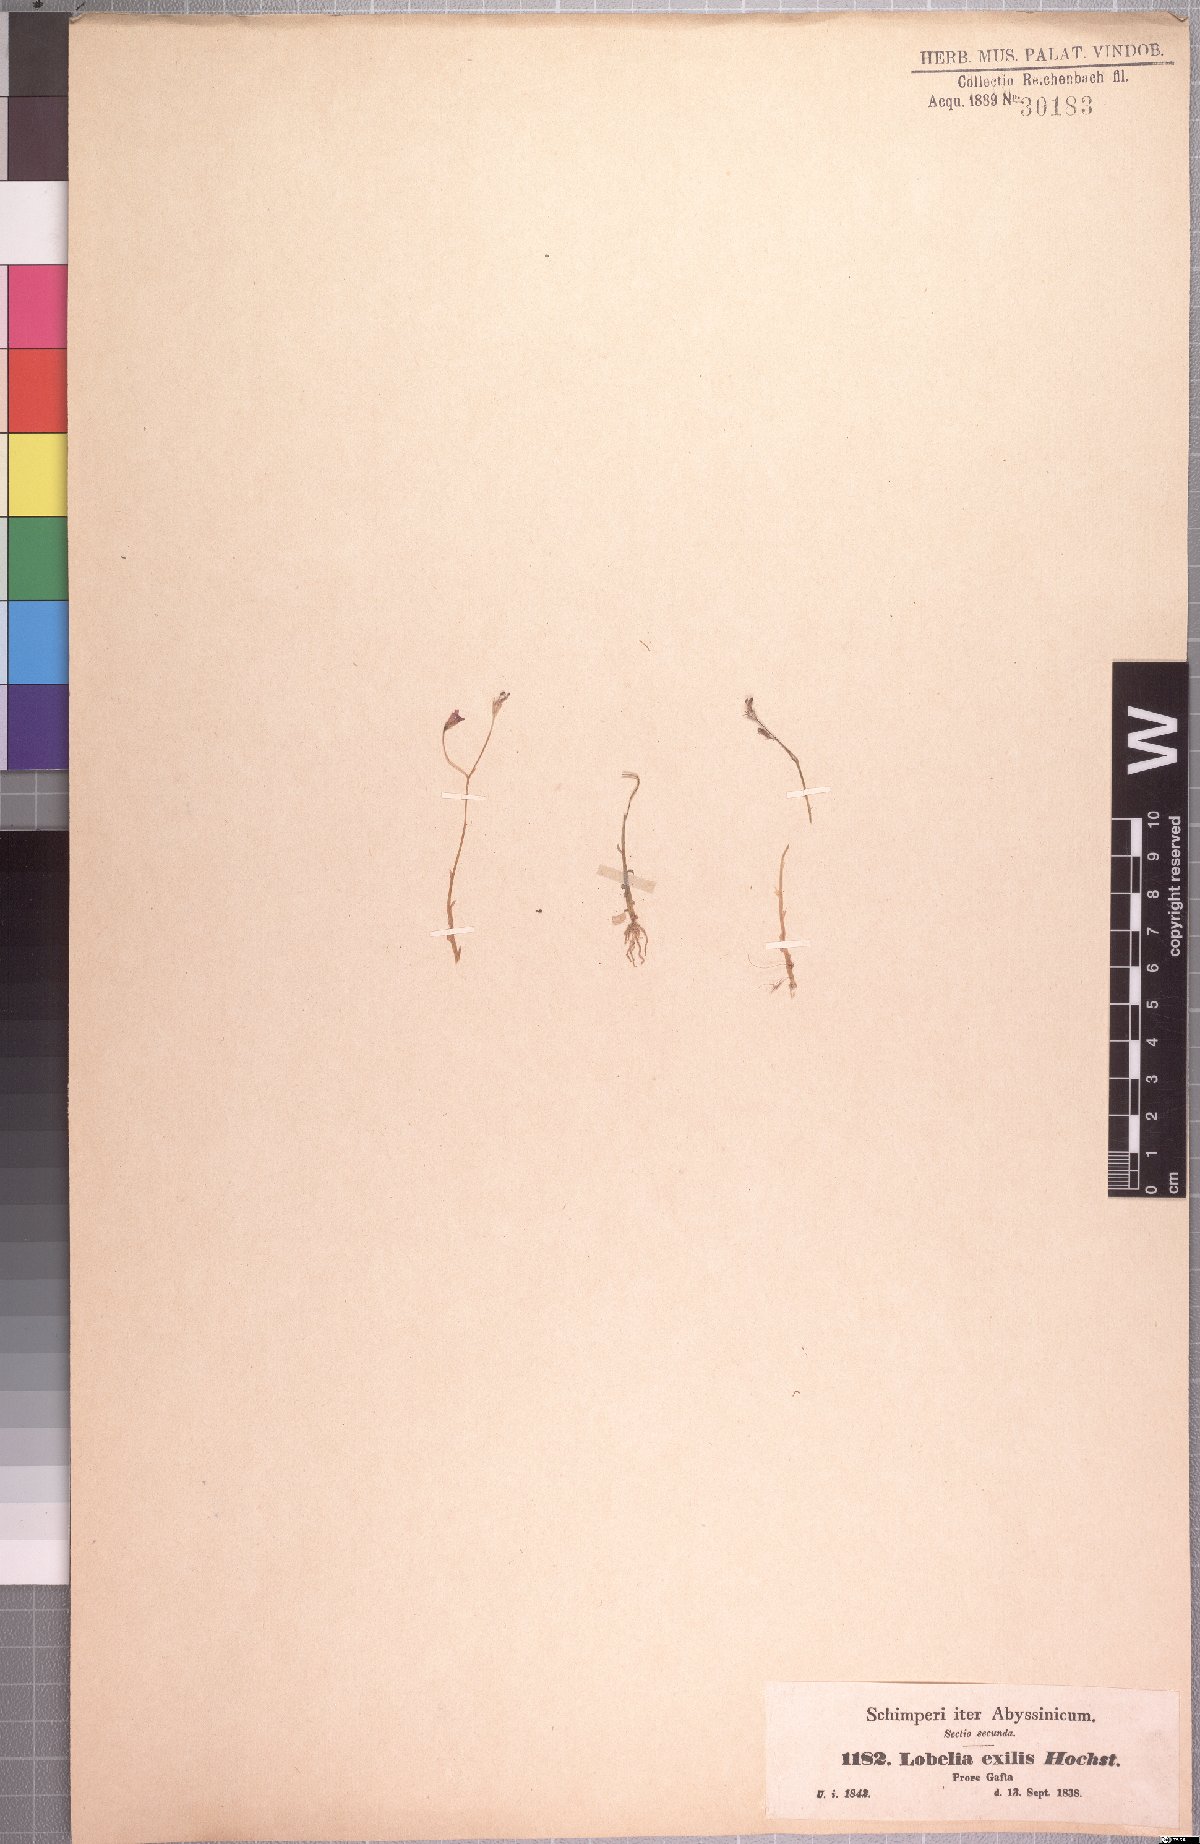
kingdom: Plantae
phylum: Tracheophyta
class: Magnoliopsida
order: Asterales
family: Campanulaceae
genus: Lobelia
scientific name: Lobelia exilis
